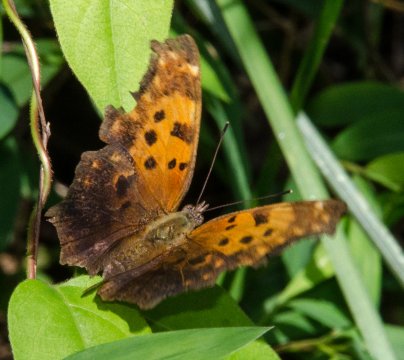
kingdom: Animalia
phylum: Arthropoda
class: Insecta
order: Lepidoptera
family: Nymphalidae
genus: Polygonia
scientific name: Polygonia comma
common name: Eastern Comma
